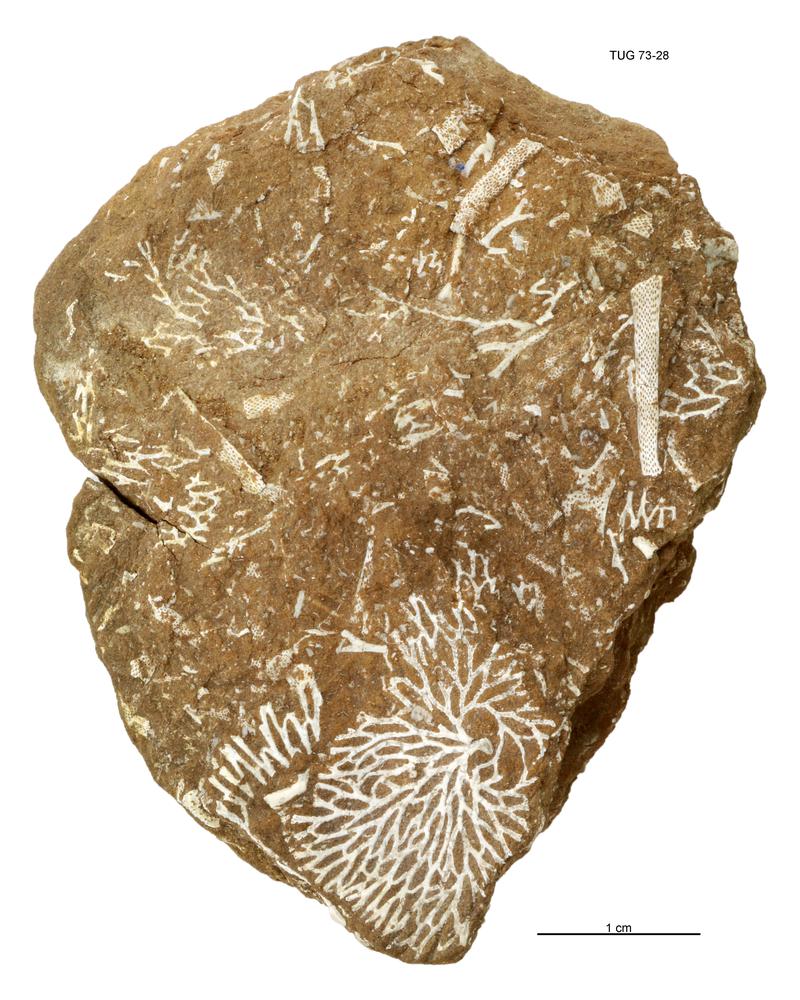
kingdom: Animalia
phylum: Bryozoa
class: Stenolaemata
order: Fenestrida
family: Chasmatoporidae
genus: Chasmatopora
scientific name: Chasmatopora furcata
